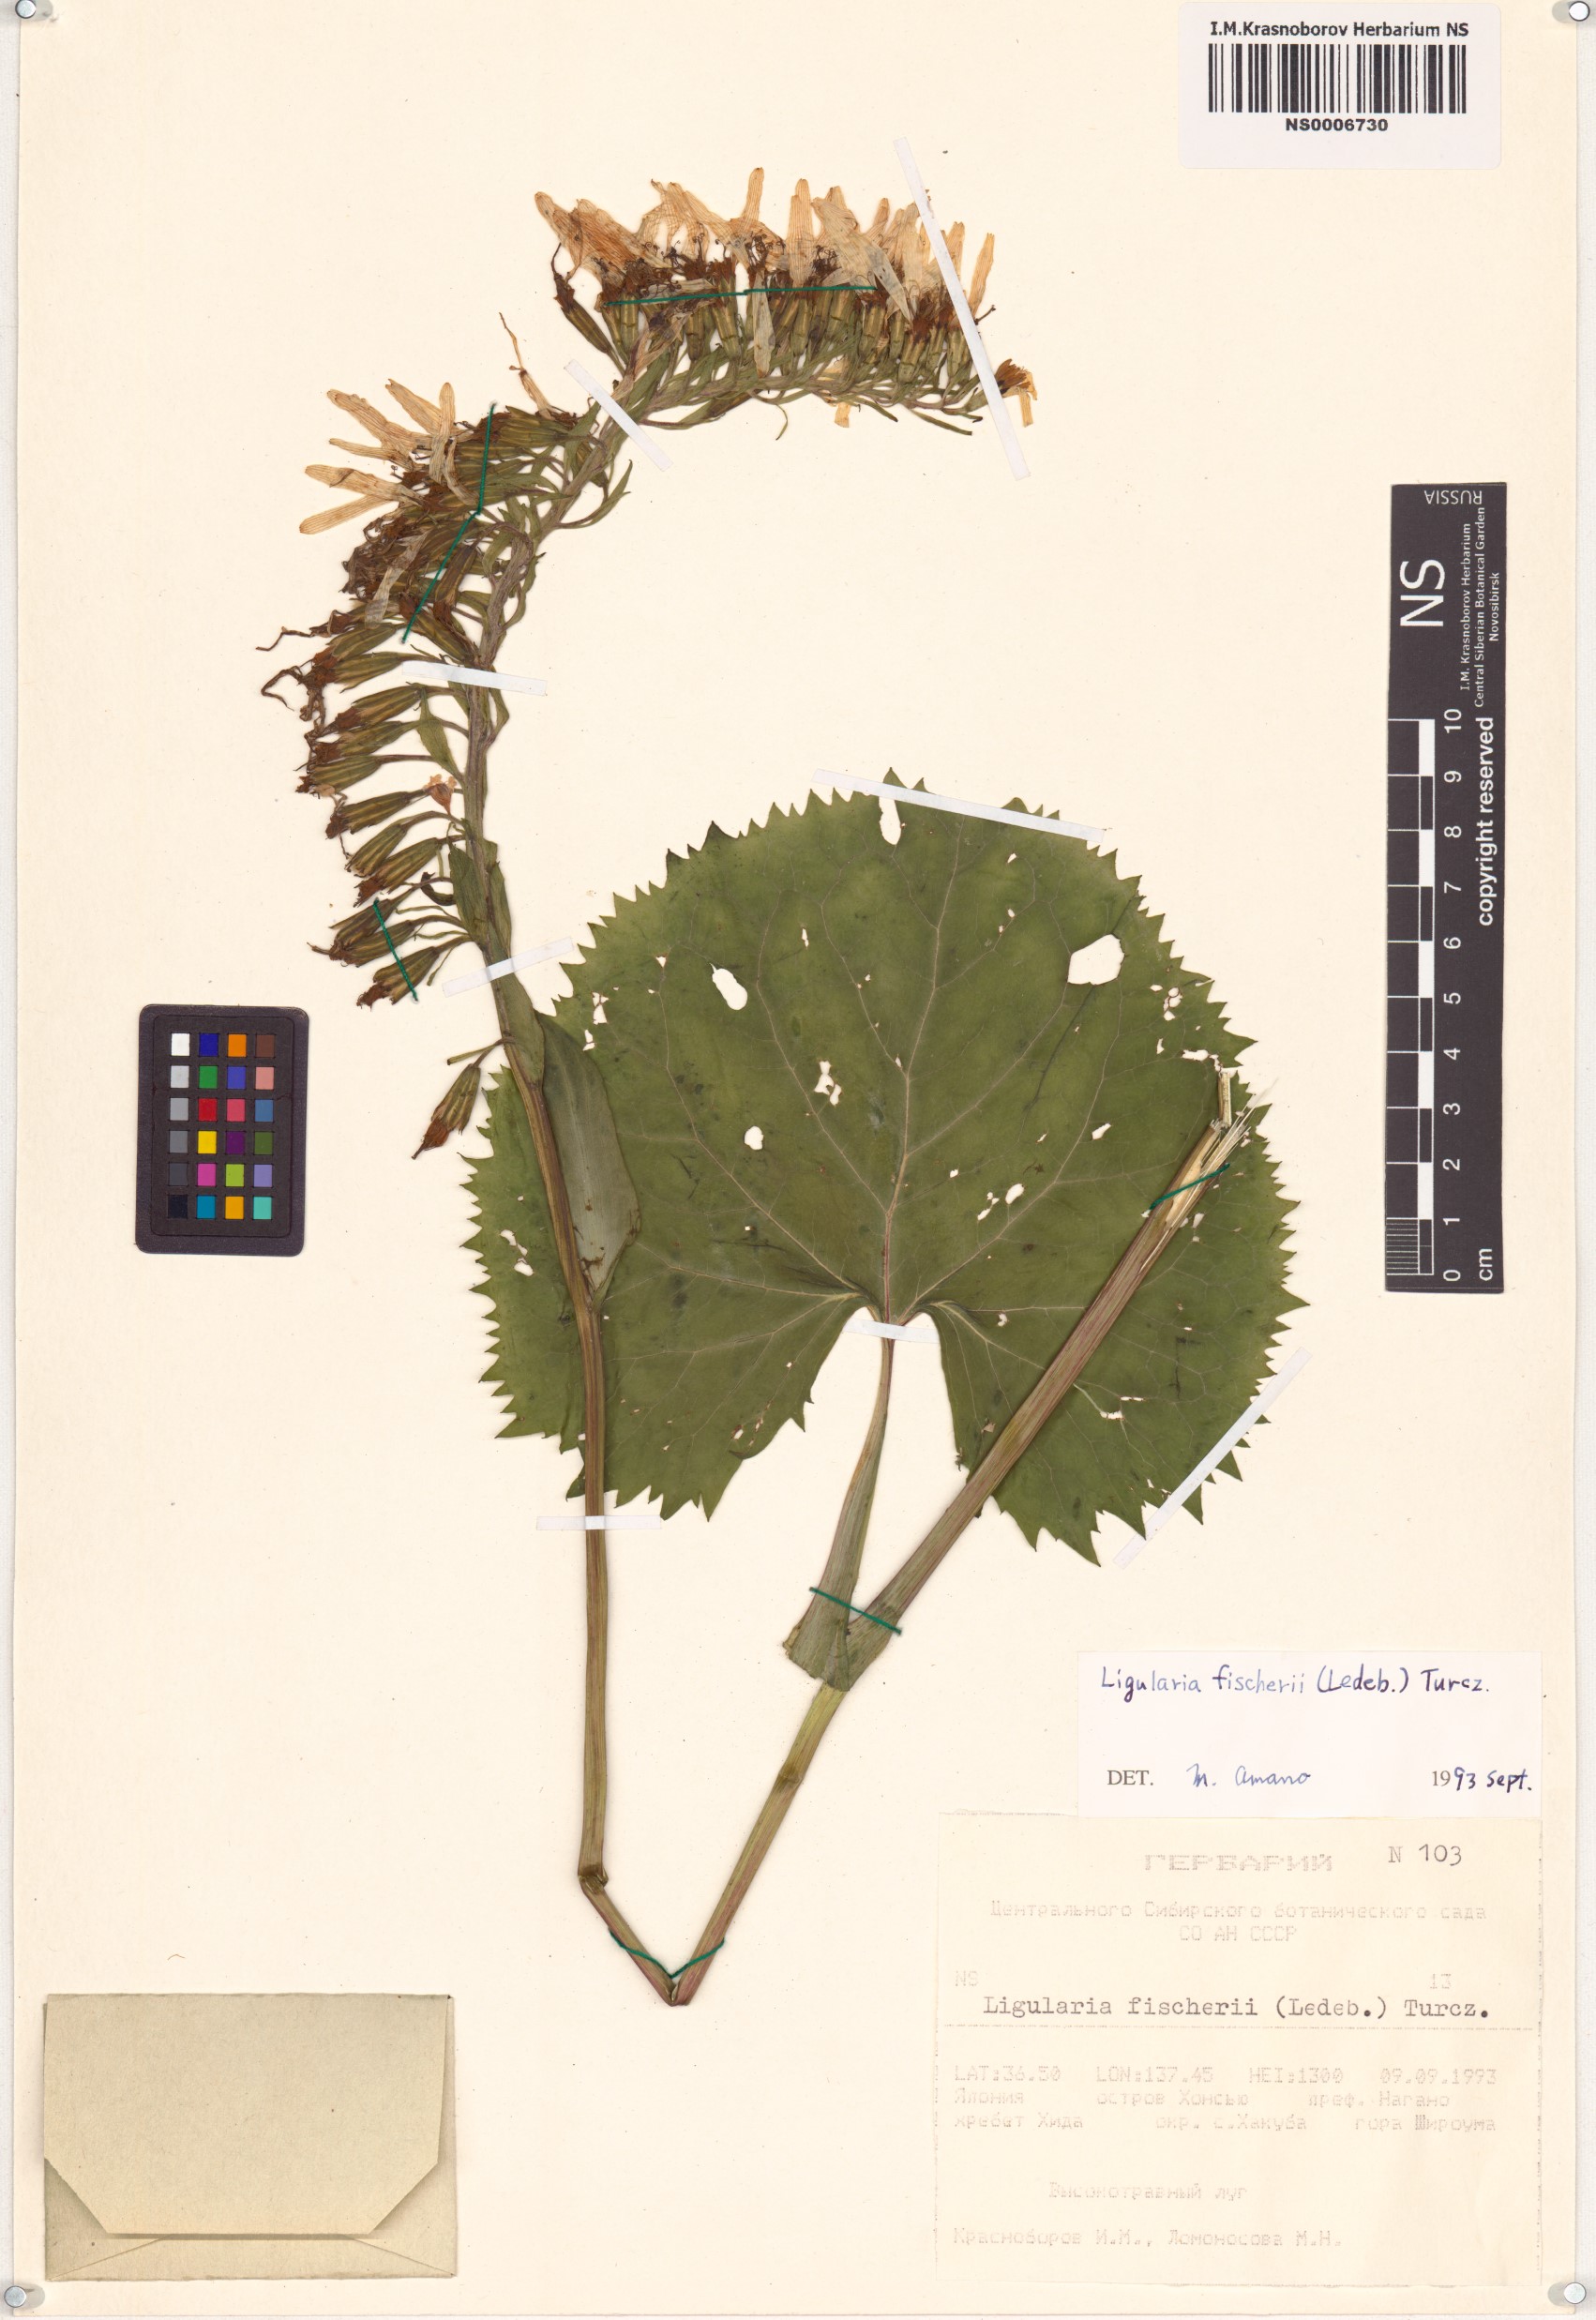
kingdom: Plantae
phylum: Tracheophyta
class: Magnoliopsida
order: Asterales
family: Asteraceae
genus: Ligularia
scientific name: Ligularia fischeri
